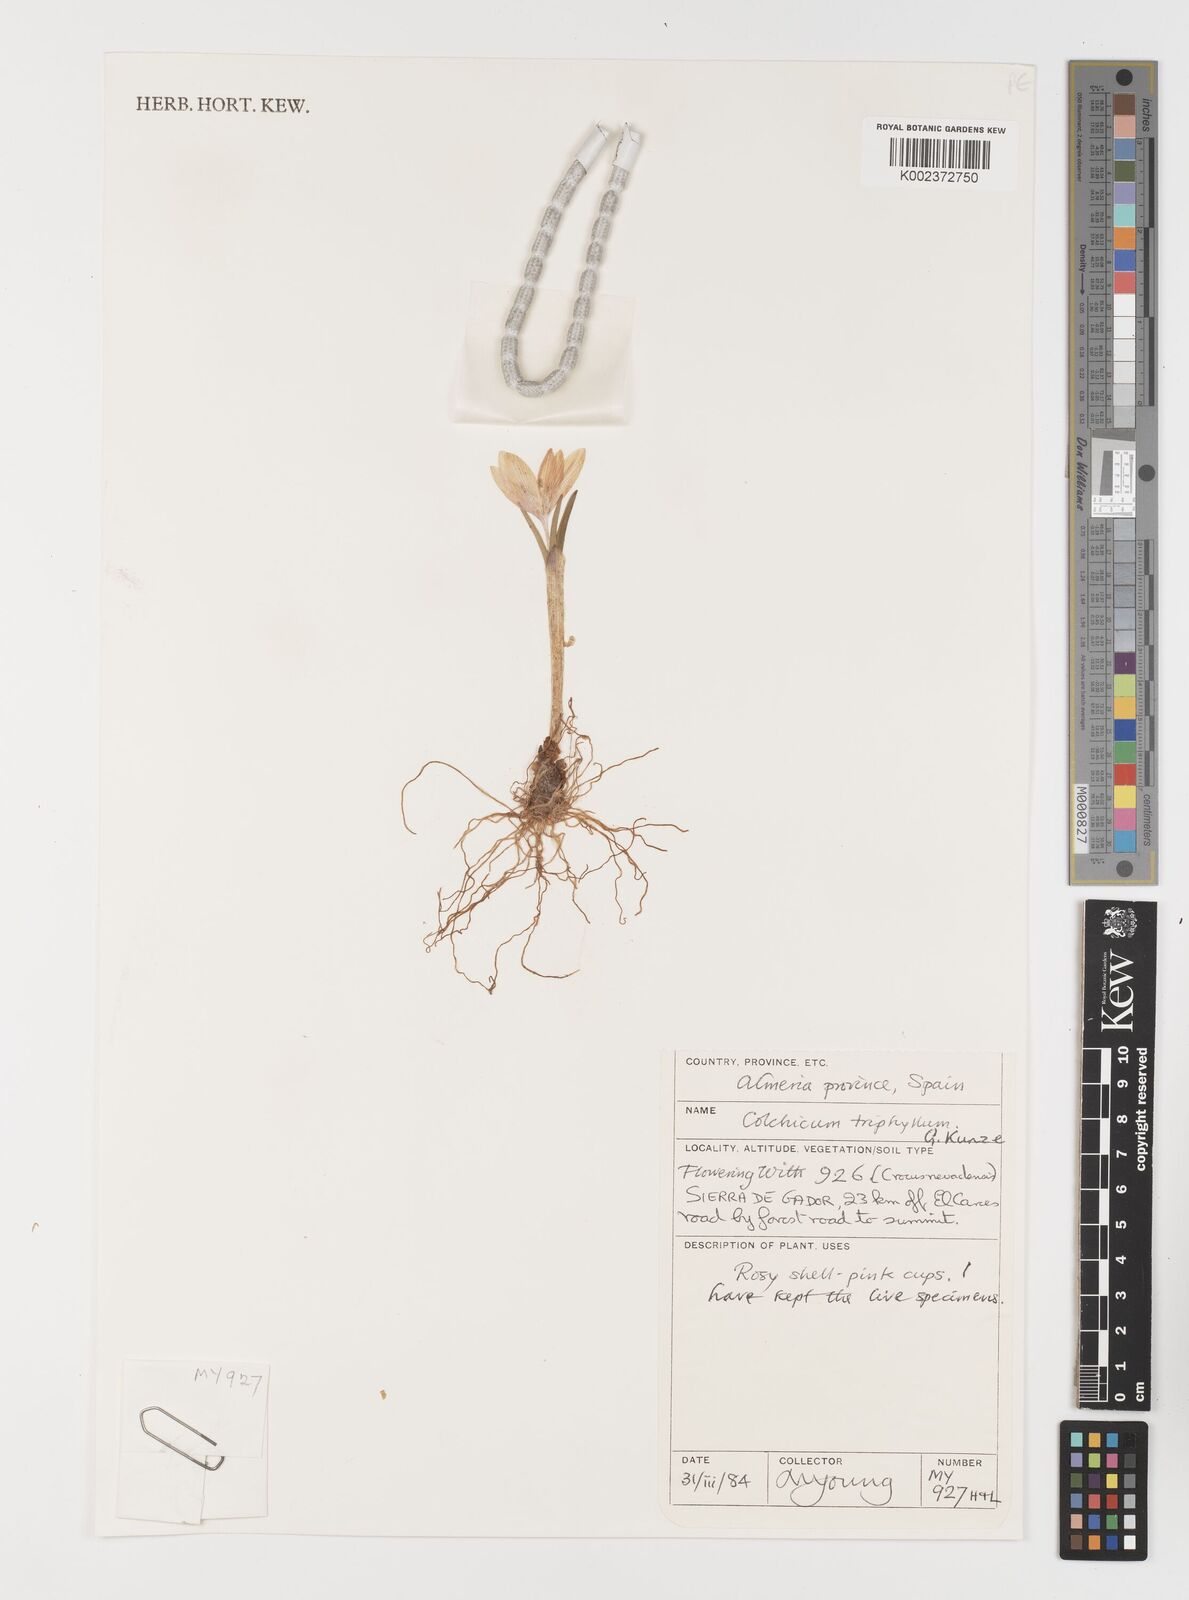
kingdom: Plantae
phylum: Tracheophyta
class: Liliopsida
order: Liliales
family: Colchicaceae
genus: Colchicum
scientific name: Colchicum
